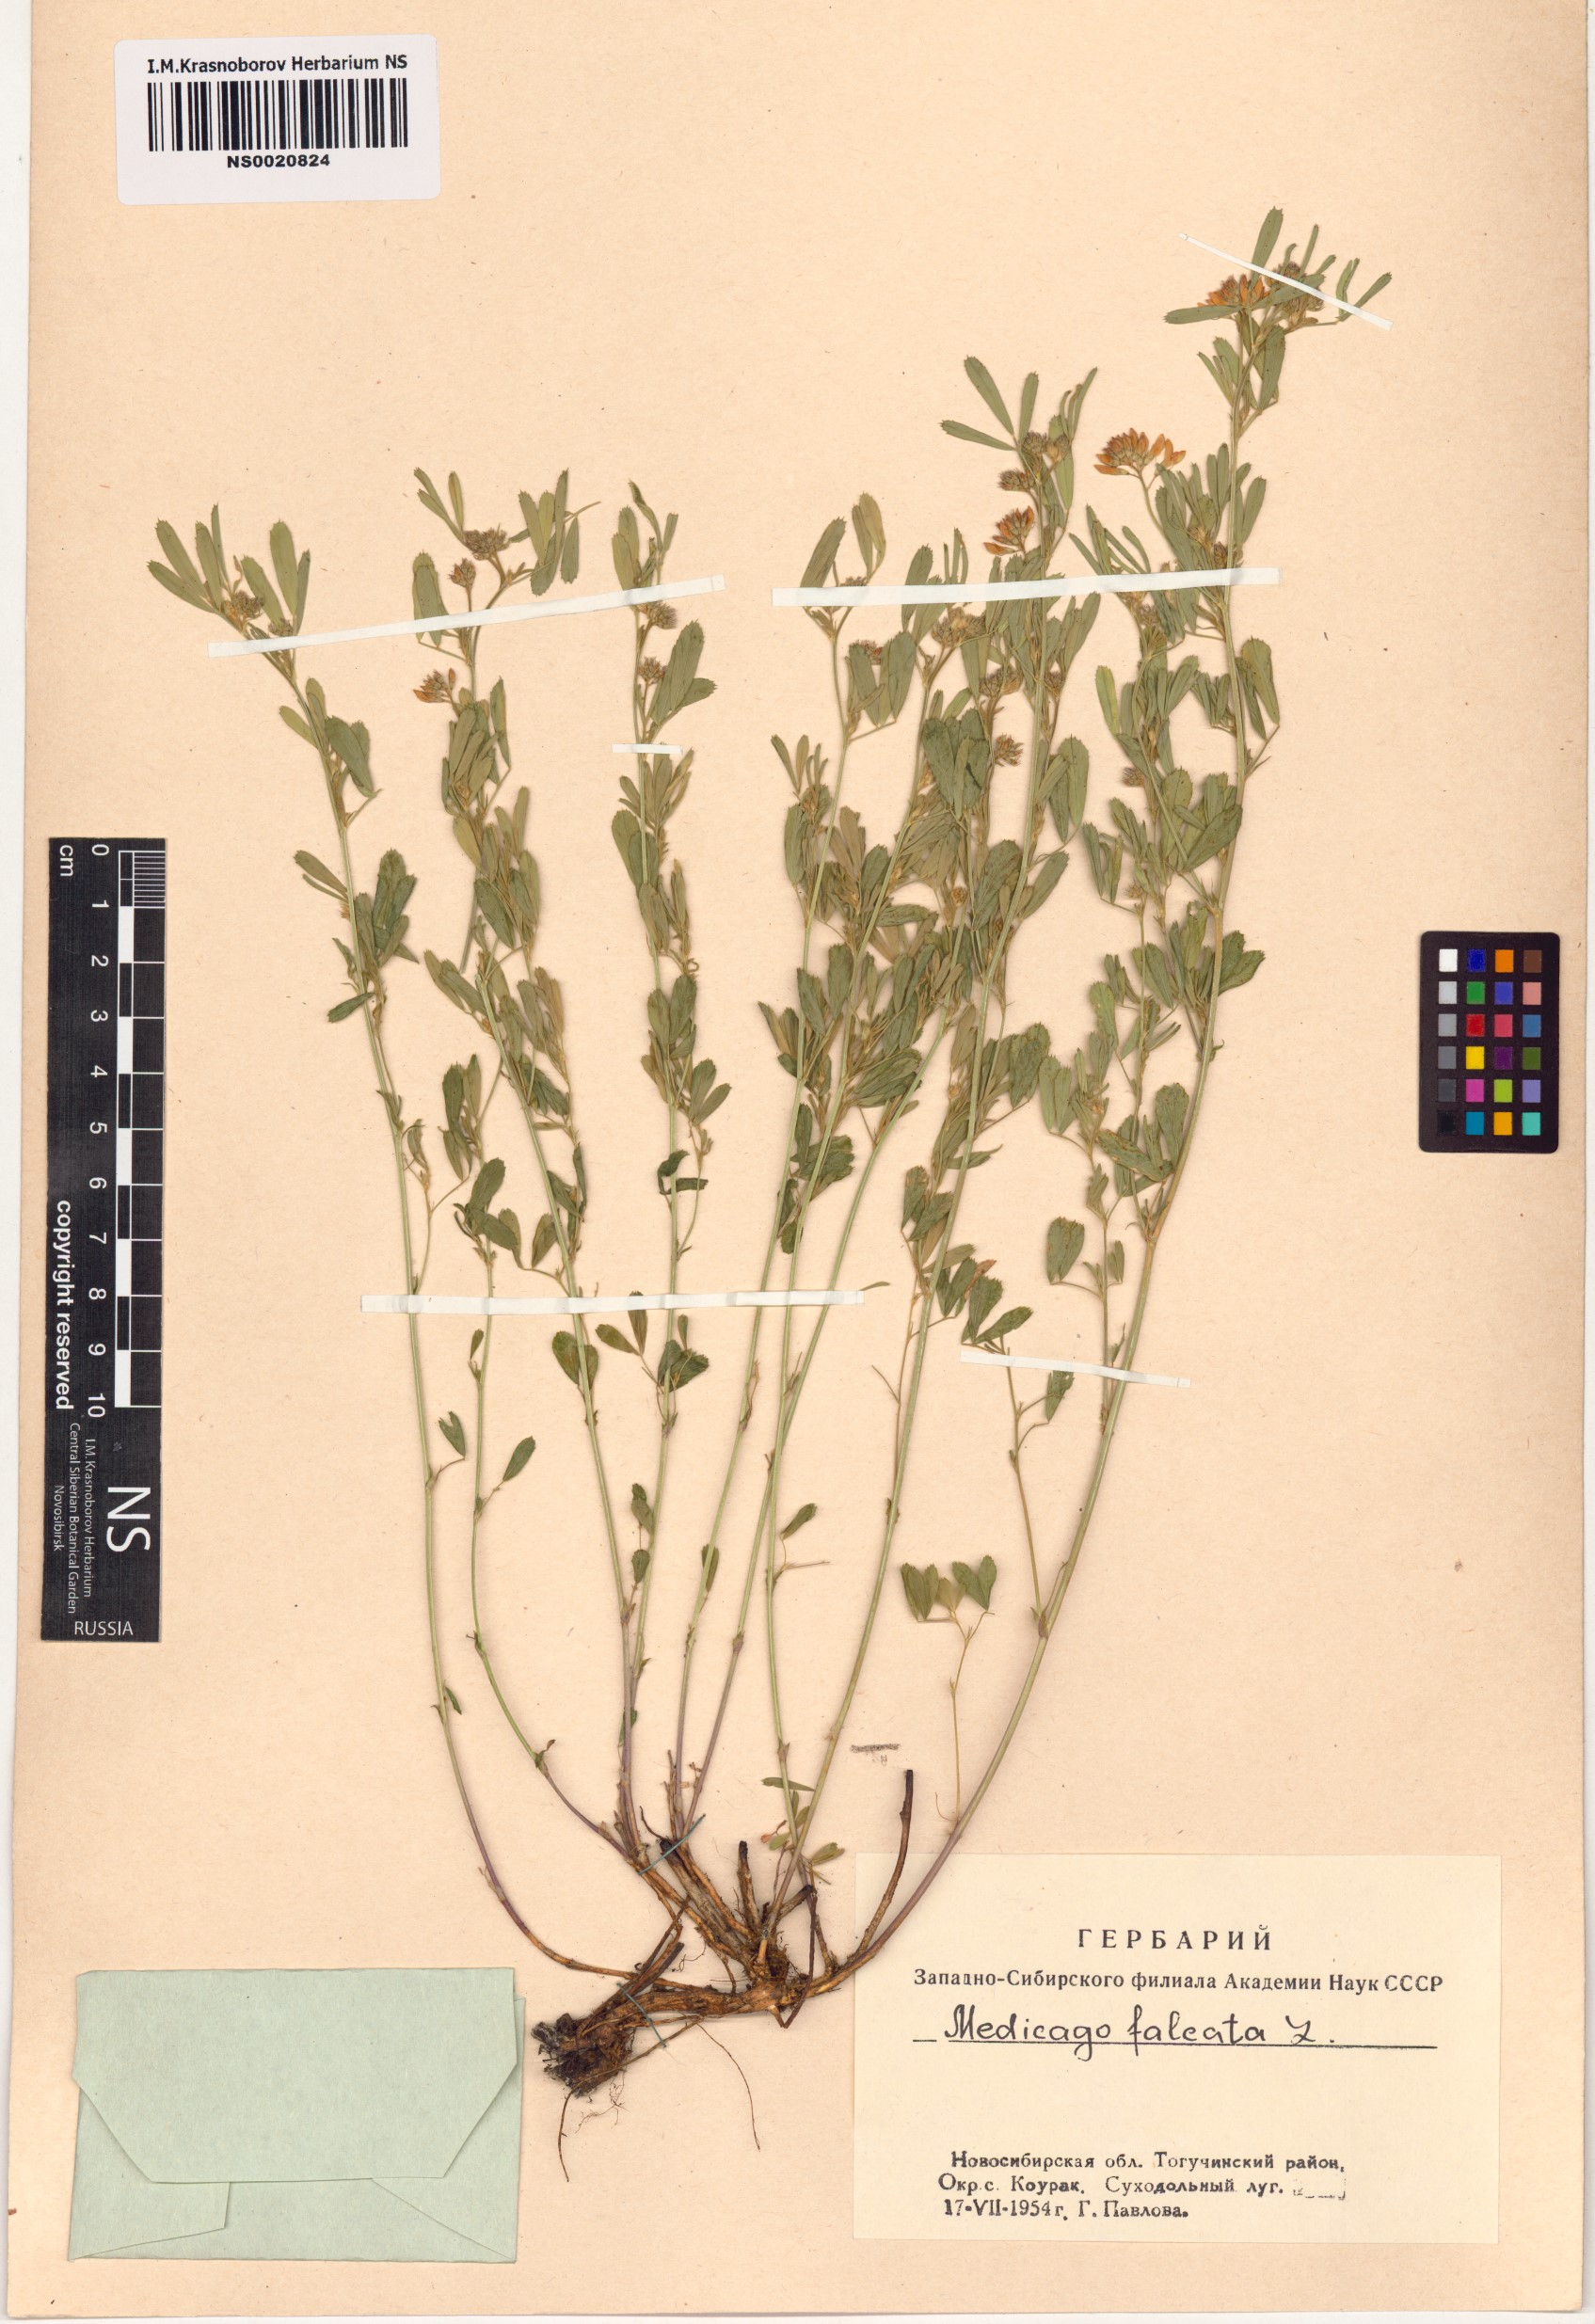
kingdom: Plantae
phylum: Tracheophyta
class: Magnoliopsida
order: Fabales
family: Fabaceae
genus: Medicago
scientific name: Medicago falcata
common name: Sickle medick
